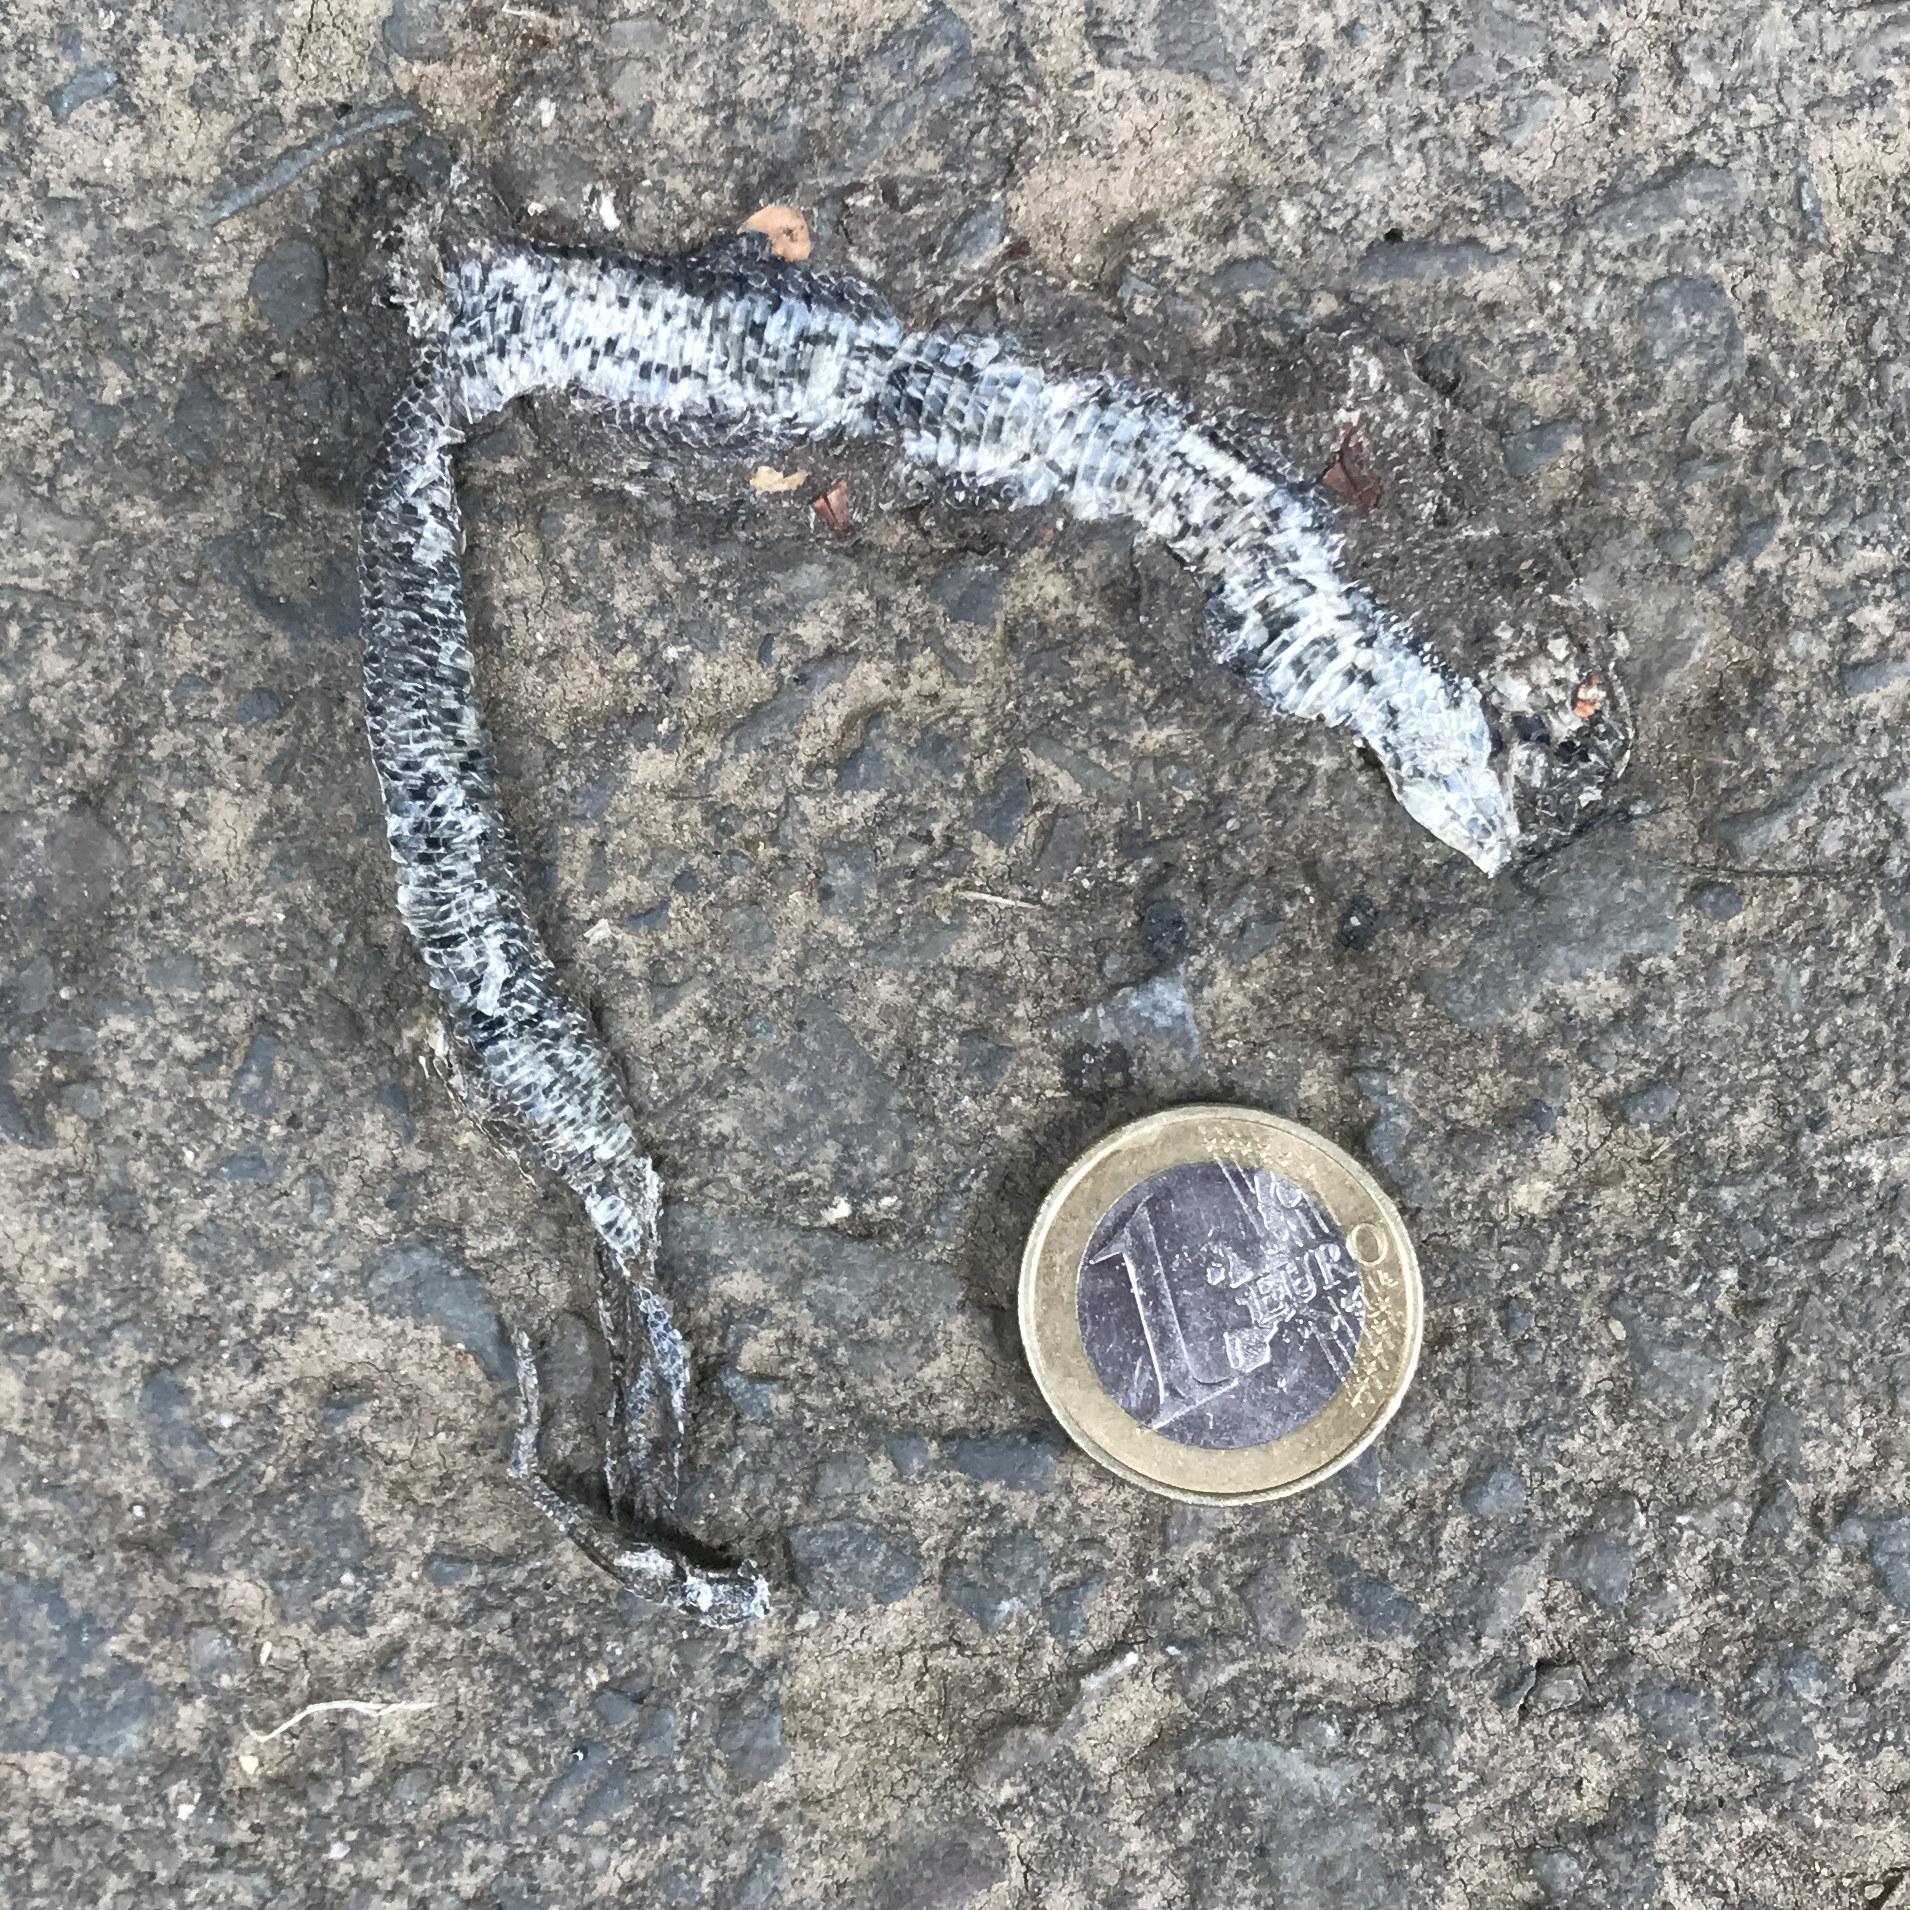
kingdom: Animalia
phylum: Chordata
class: Squamata
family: Colubridae
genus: Natrix
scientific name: Natrix natrix
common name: Grass snake
